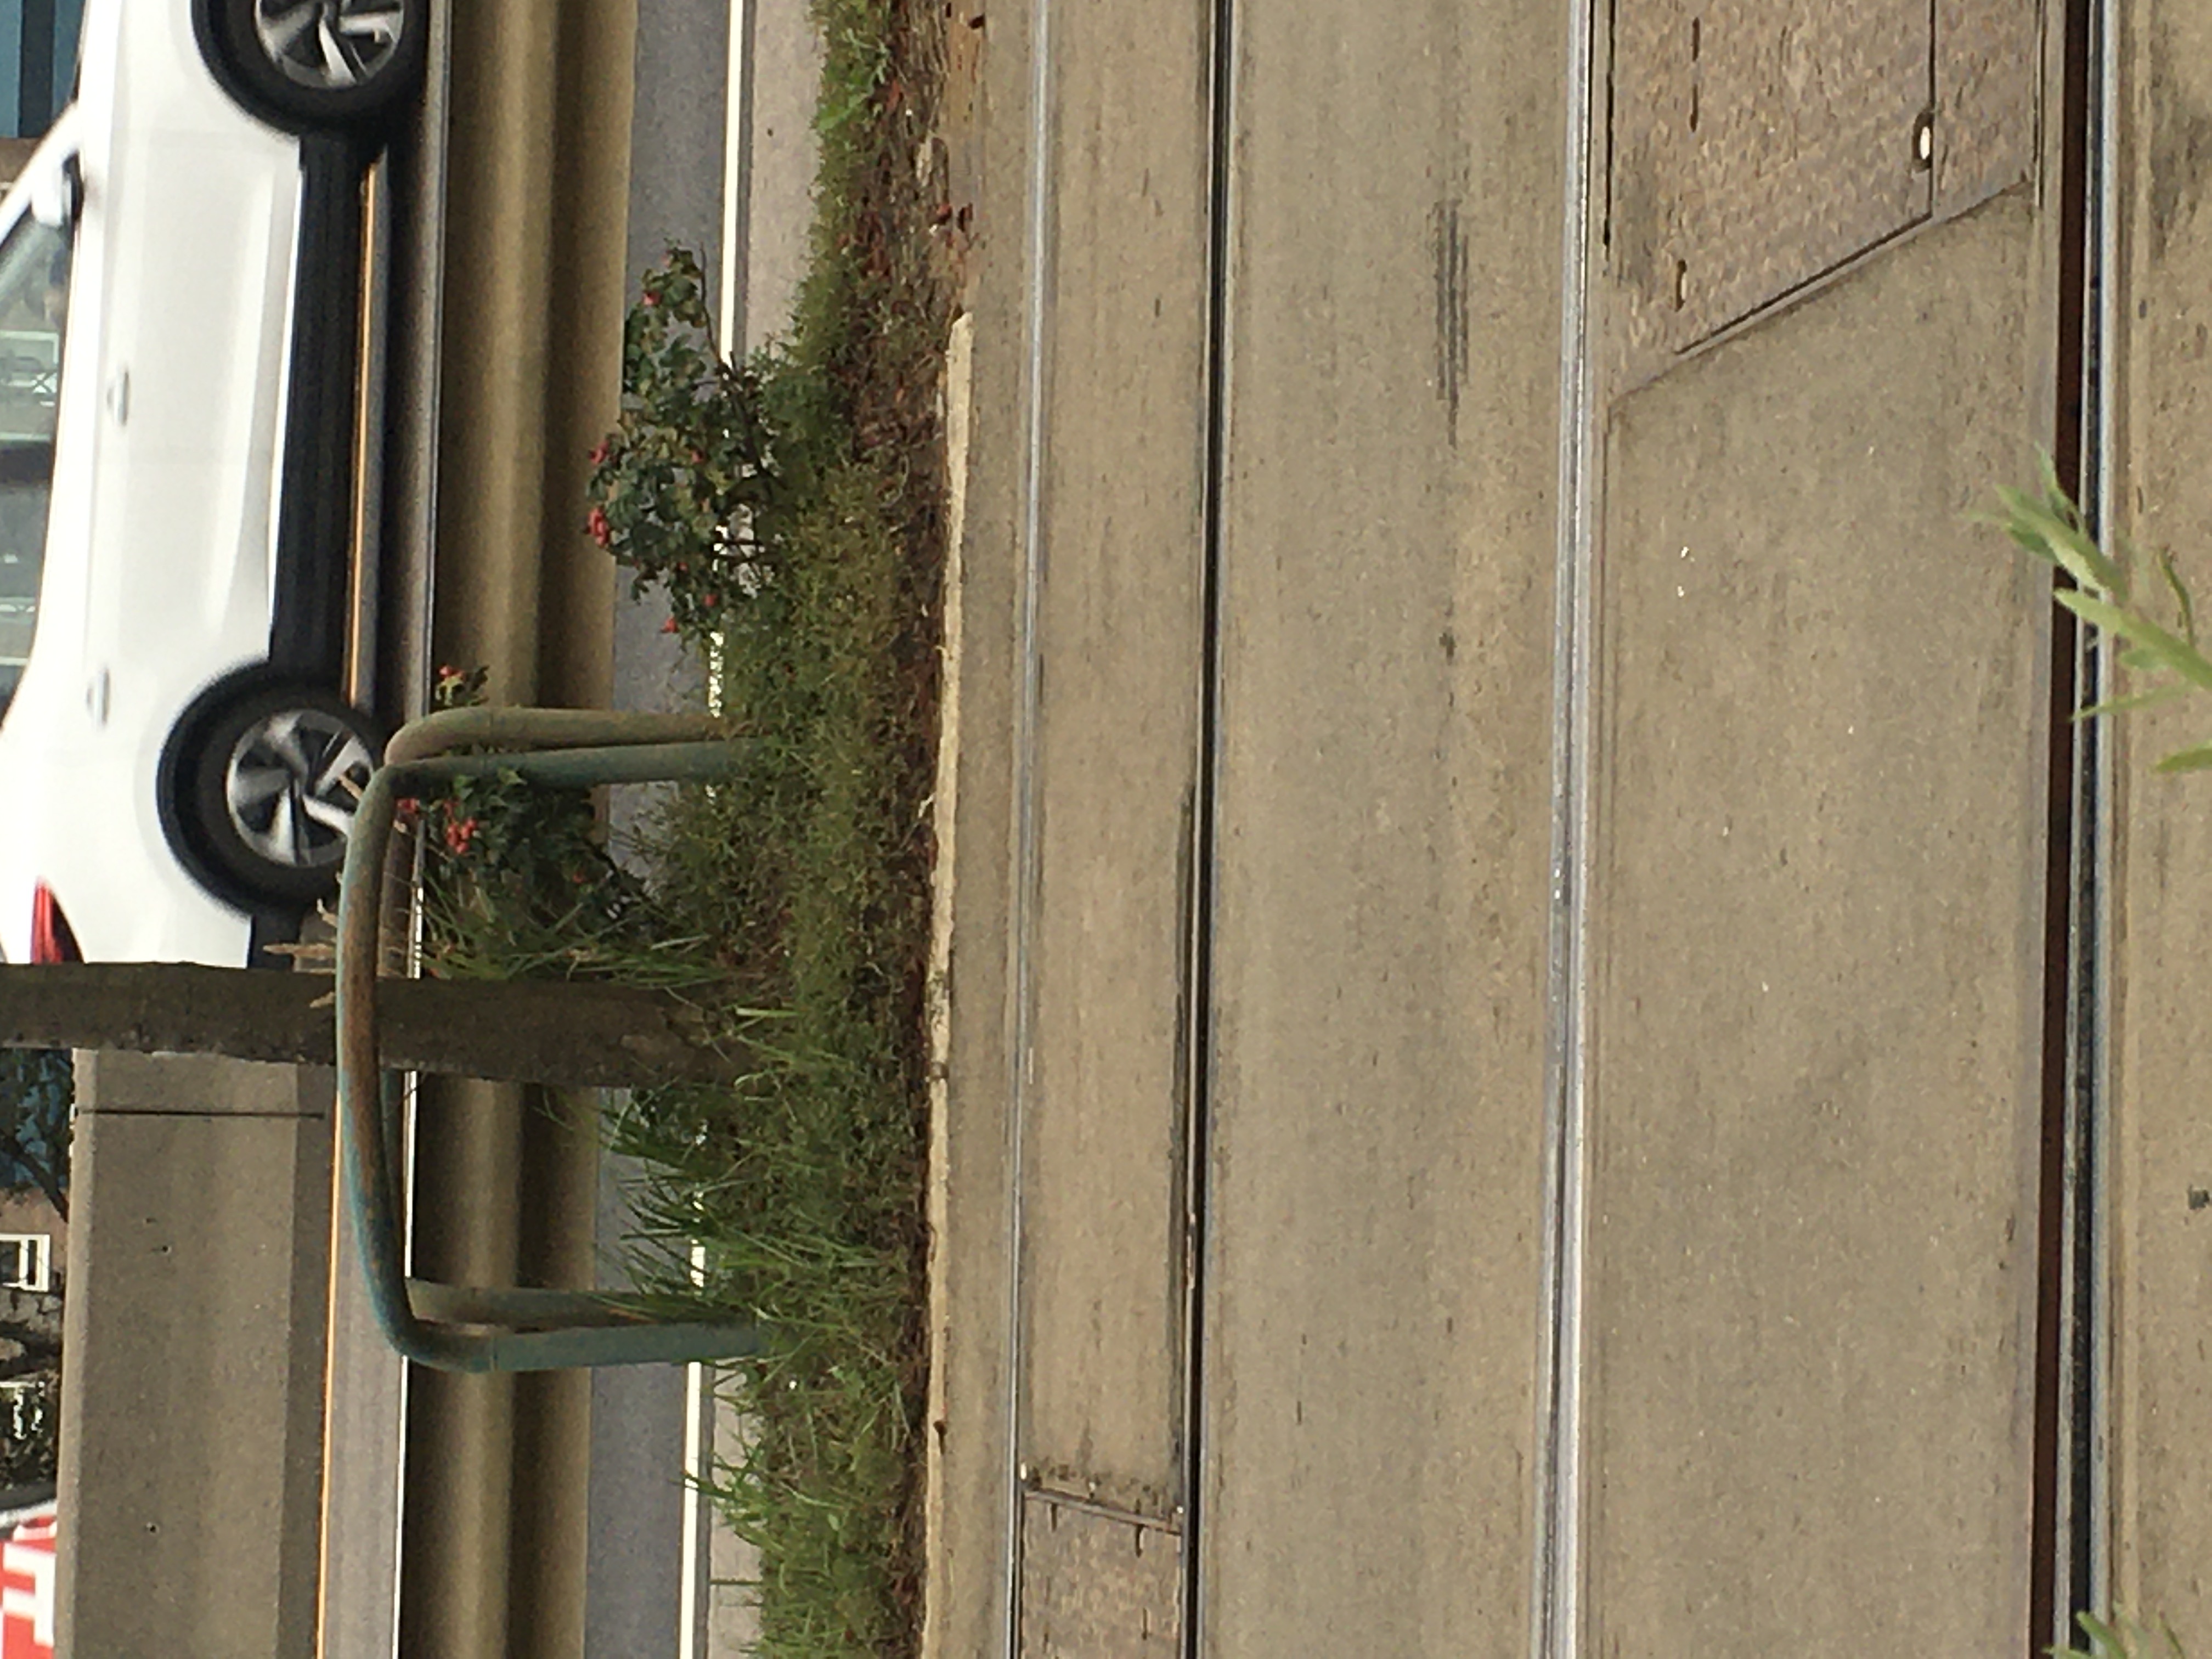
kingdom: Plantae
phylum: Tracheophyta
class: Magnoliopsida
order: Rosales
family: Rosaceae
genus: Rosa
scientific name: Rosa rugosa
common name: rynkerose
